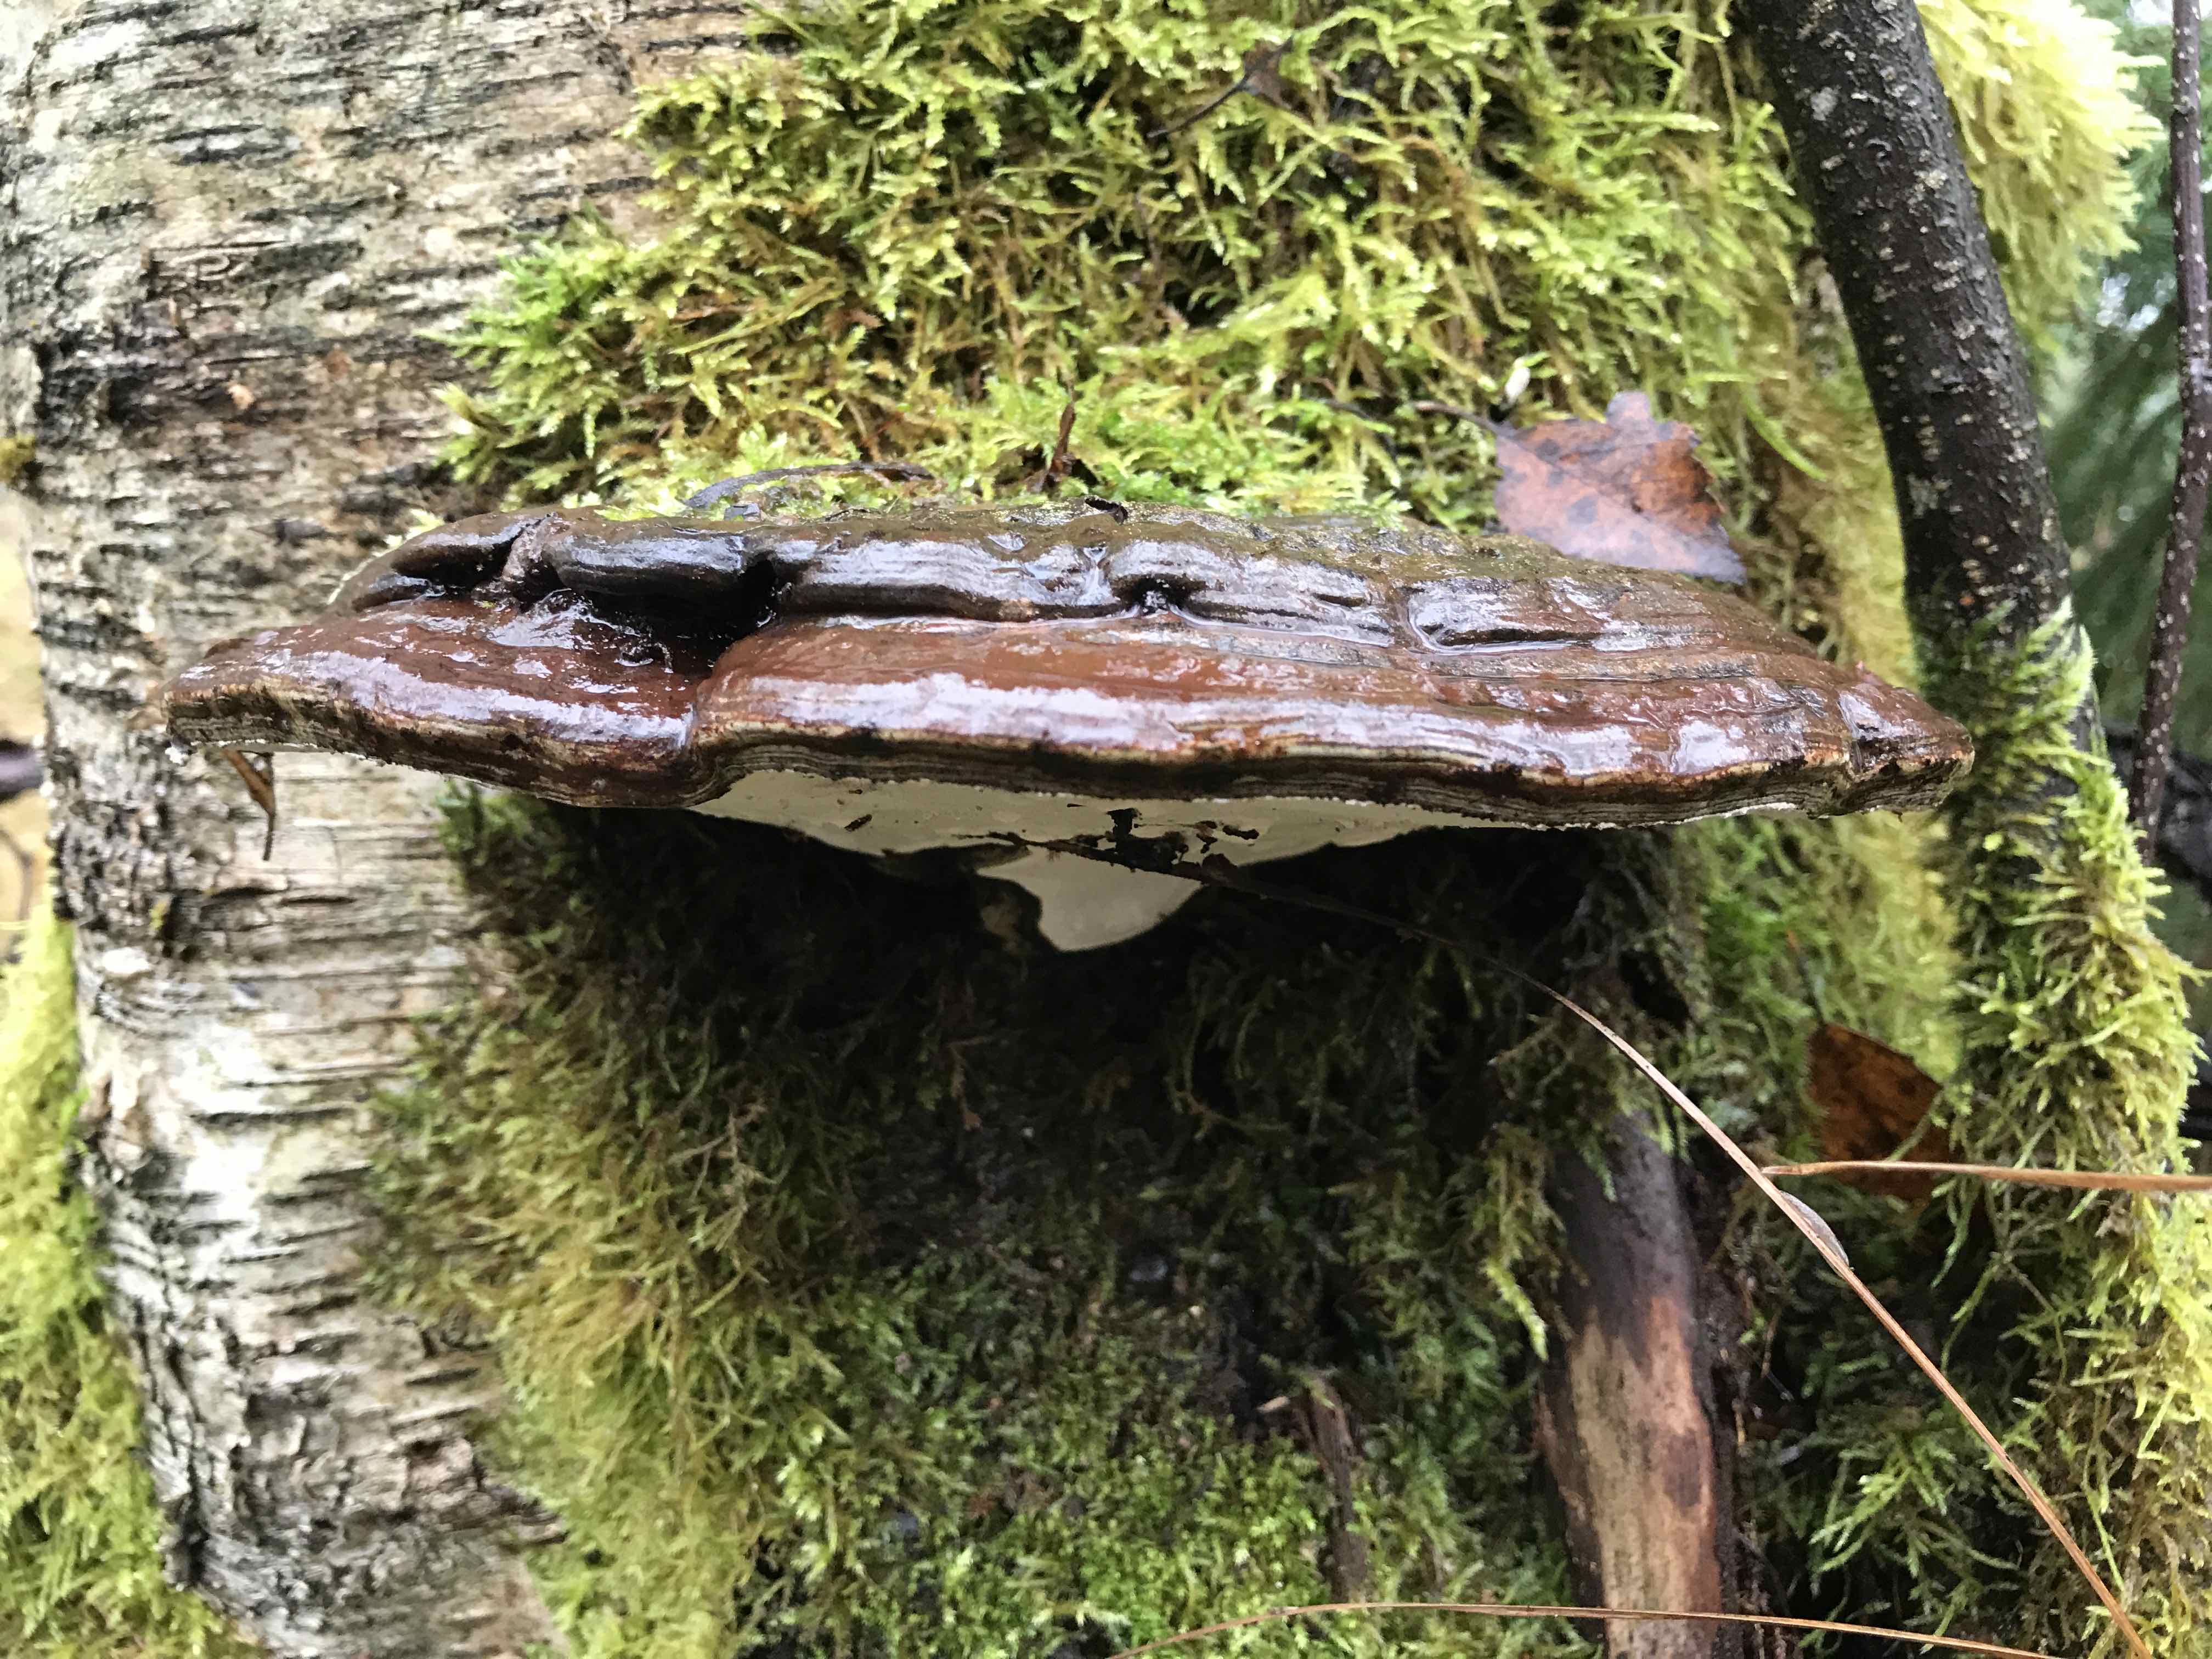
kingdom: Fungi
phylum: Basidiomycota
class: Agaricomycetes
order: Polyporales
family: Polyporaceae
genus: Ganoderma
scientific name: Ganoderma applanatum
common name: flad lakporesvamp
